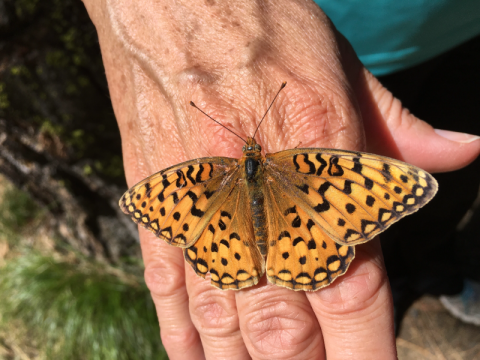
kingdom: Animalia
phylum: Arthropoda
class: Insecta
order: Lepidoptera
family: Nymphalidae
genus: Speyeria
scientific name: Speyeria coronis
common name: Coronis Fritillary
